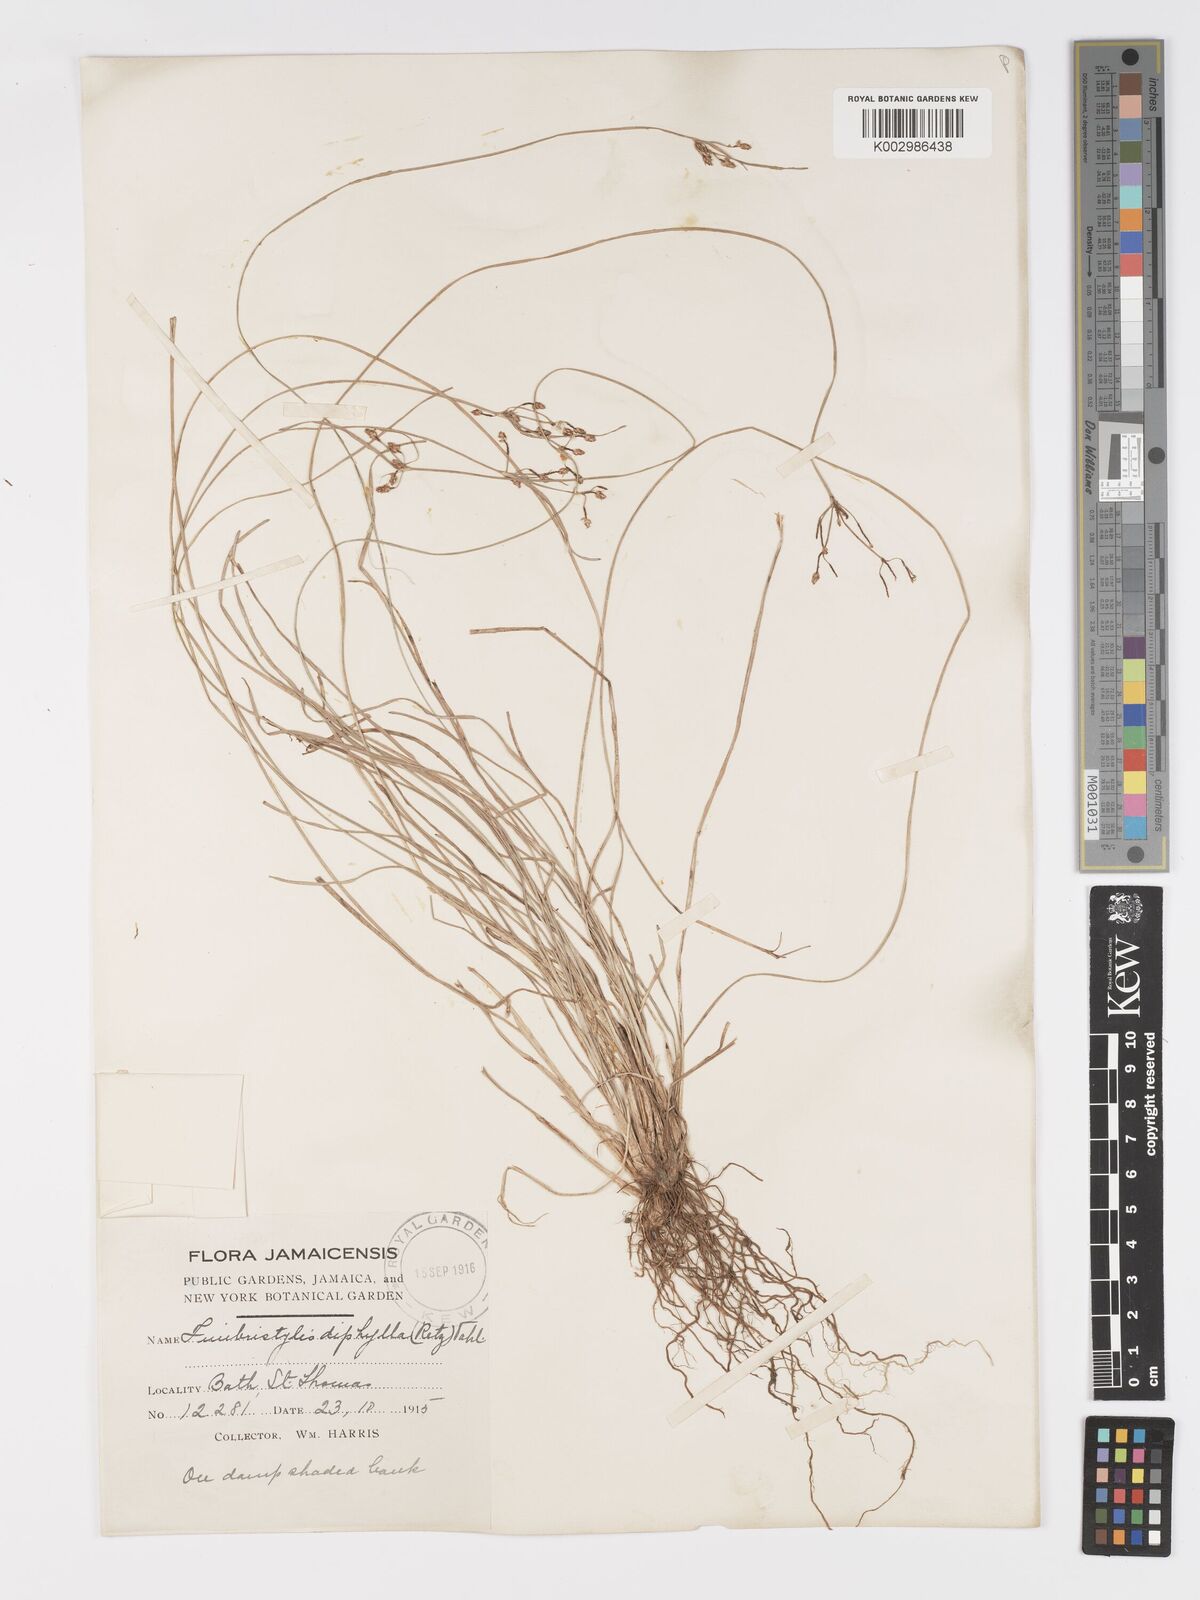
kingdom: Plantae
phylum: Tracheophyta
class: Liliopsida
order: Poales
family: Cyperaceae
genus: Fimbristylis
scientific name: Fimbristylis dichotoma
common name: Forked fimbry
